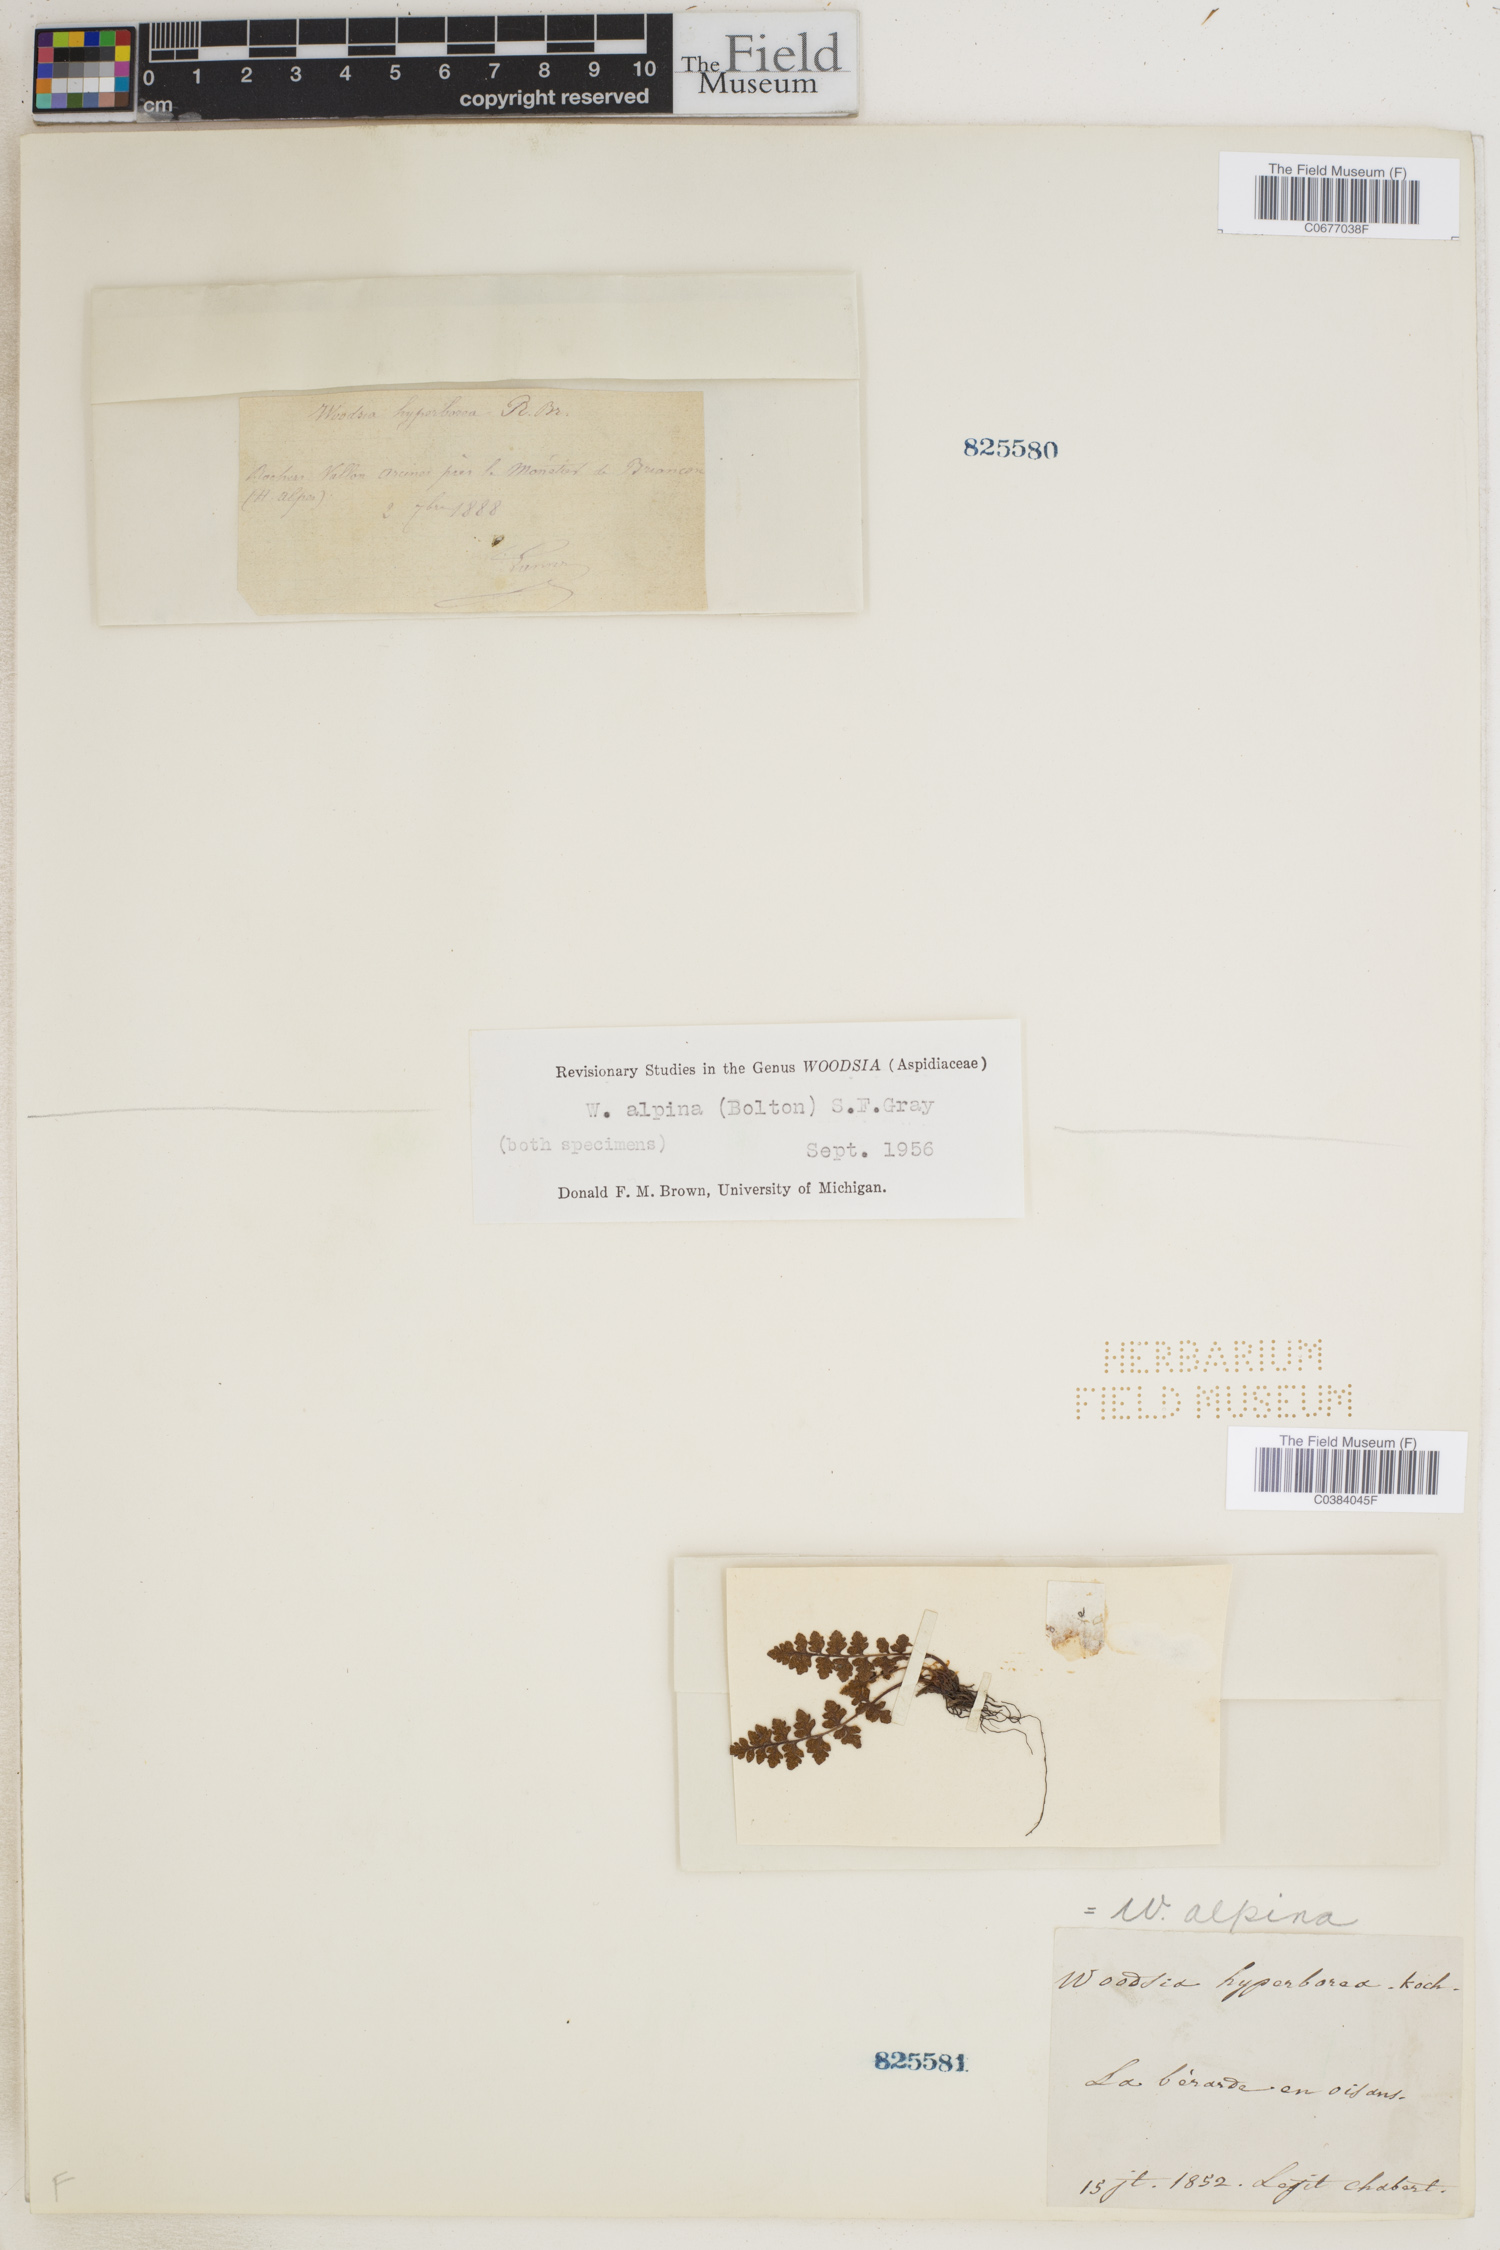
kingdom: Plantae
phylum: Tracheophyta
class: Polypodiopsida
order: Polypodiales
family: Woodsiaceae
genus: Woodsia
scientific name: Woodsia alpina
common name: Alpine woodsia
